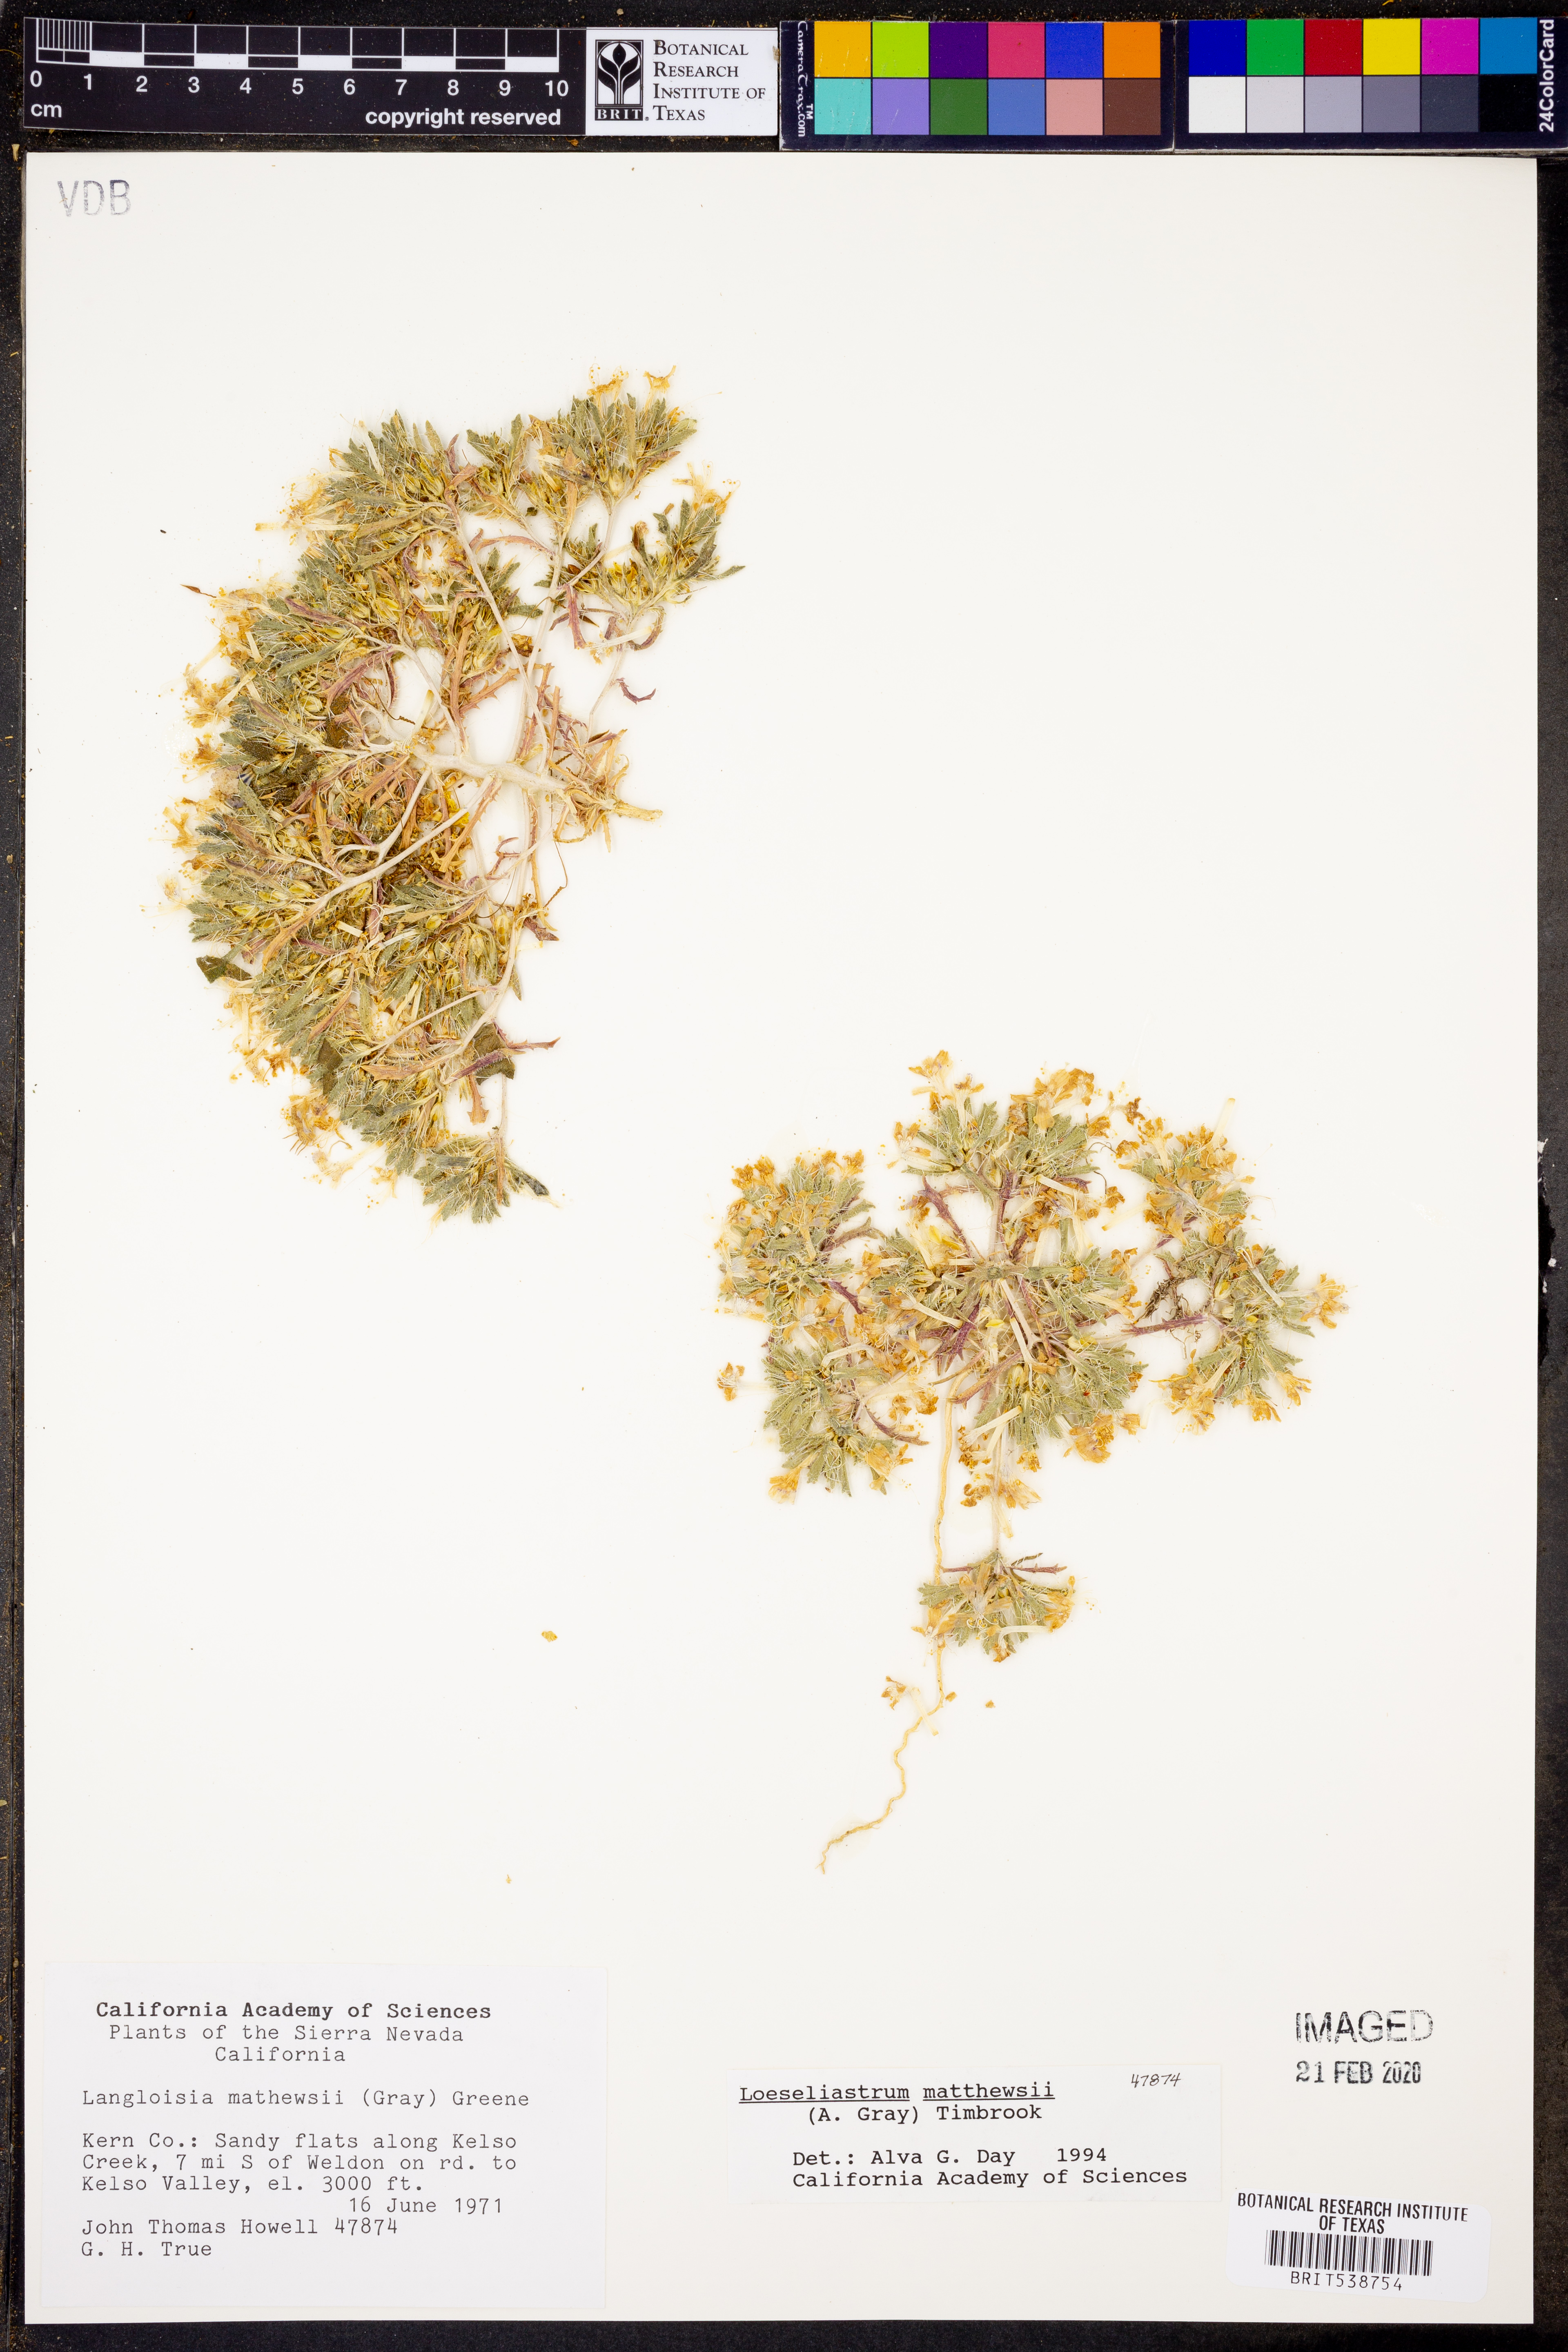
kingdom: Plantae
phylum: Tracheophyta
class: Magnoliopsida
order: Ericales
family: Polemoniaceae
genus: Loeseliastrum
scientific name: Loeseliastrum matthewsii
